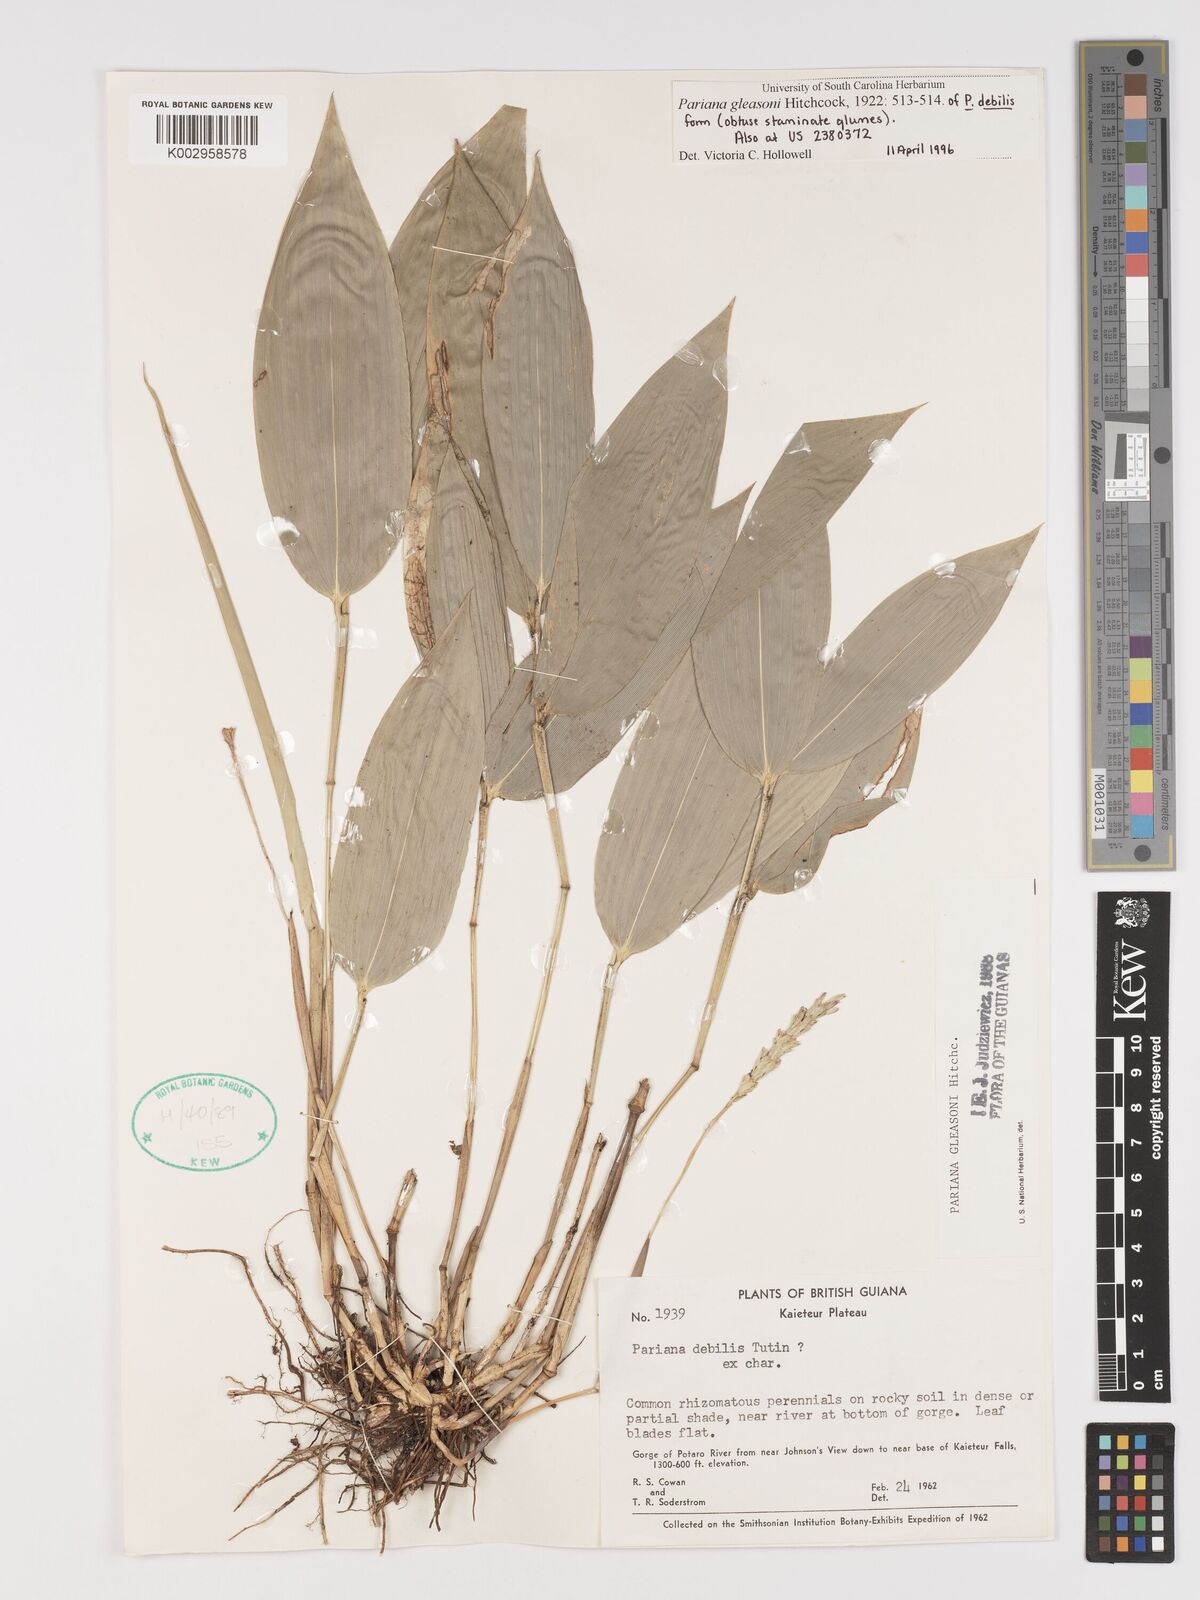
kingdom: Plantae
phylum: Tracheophyta
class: Liliopsida
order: Poales
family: Poaceae
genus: Pariana
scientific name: Pariana radiciflora
